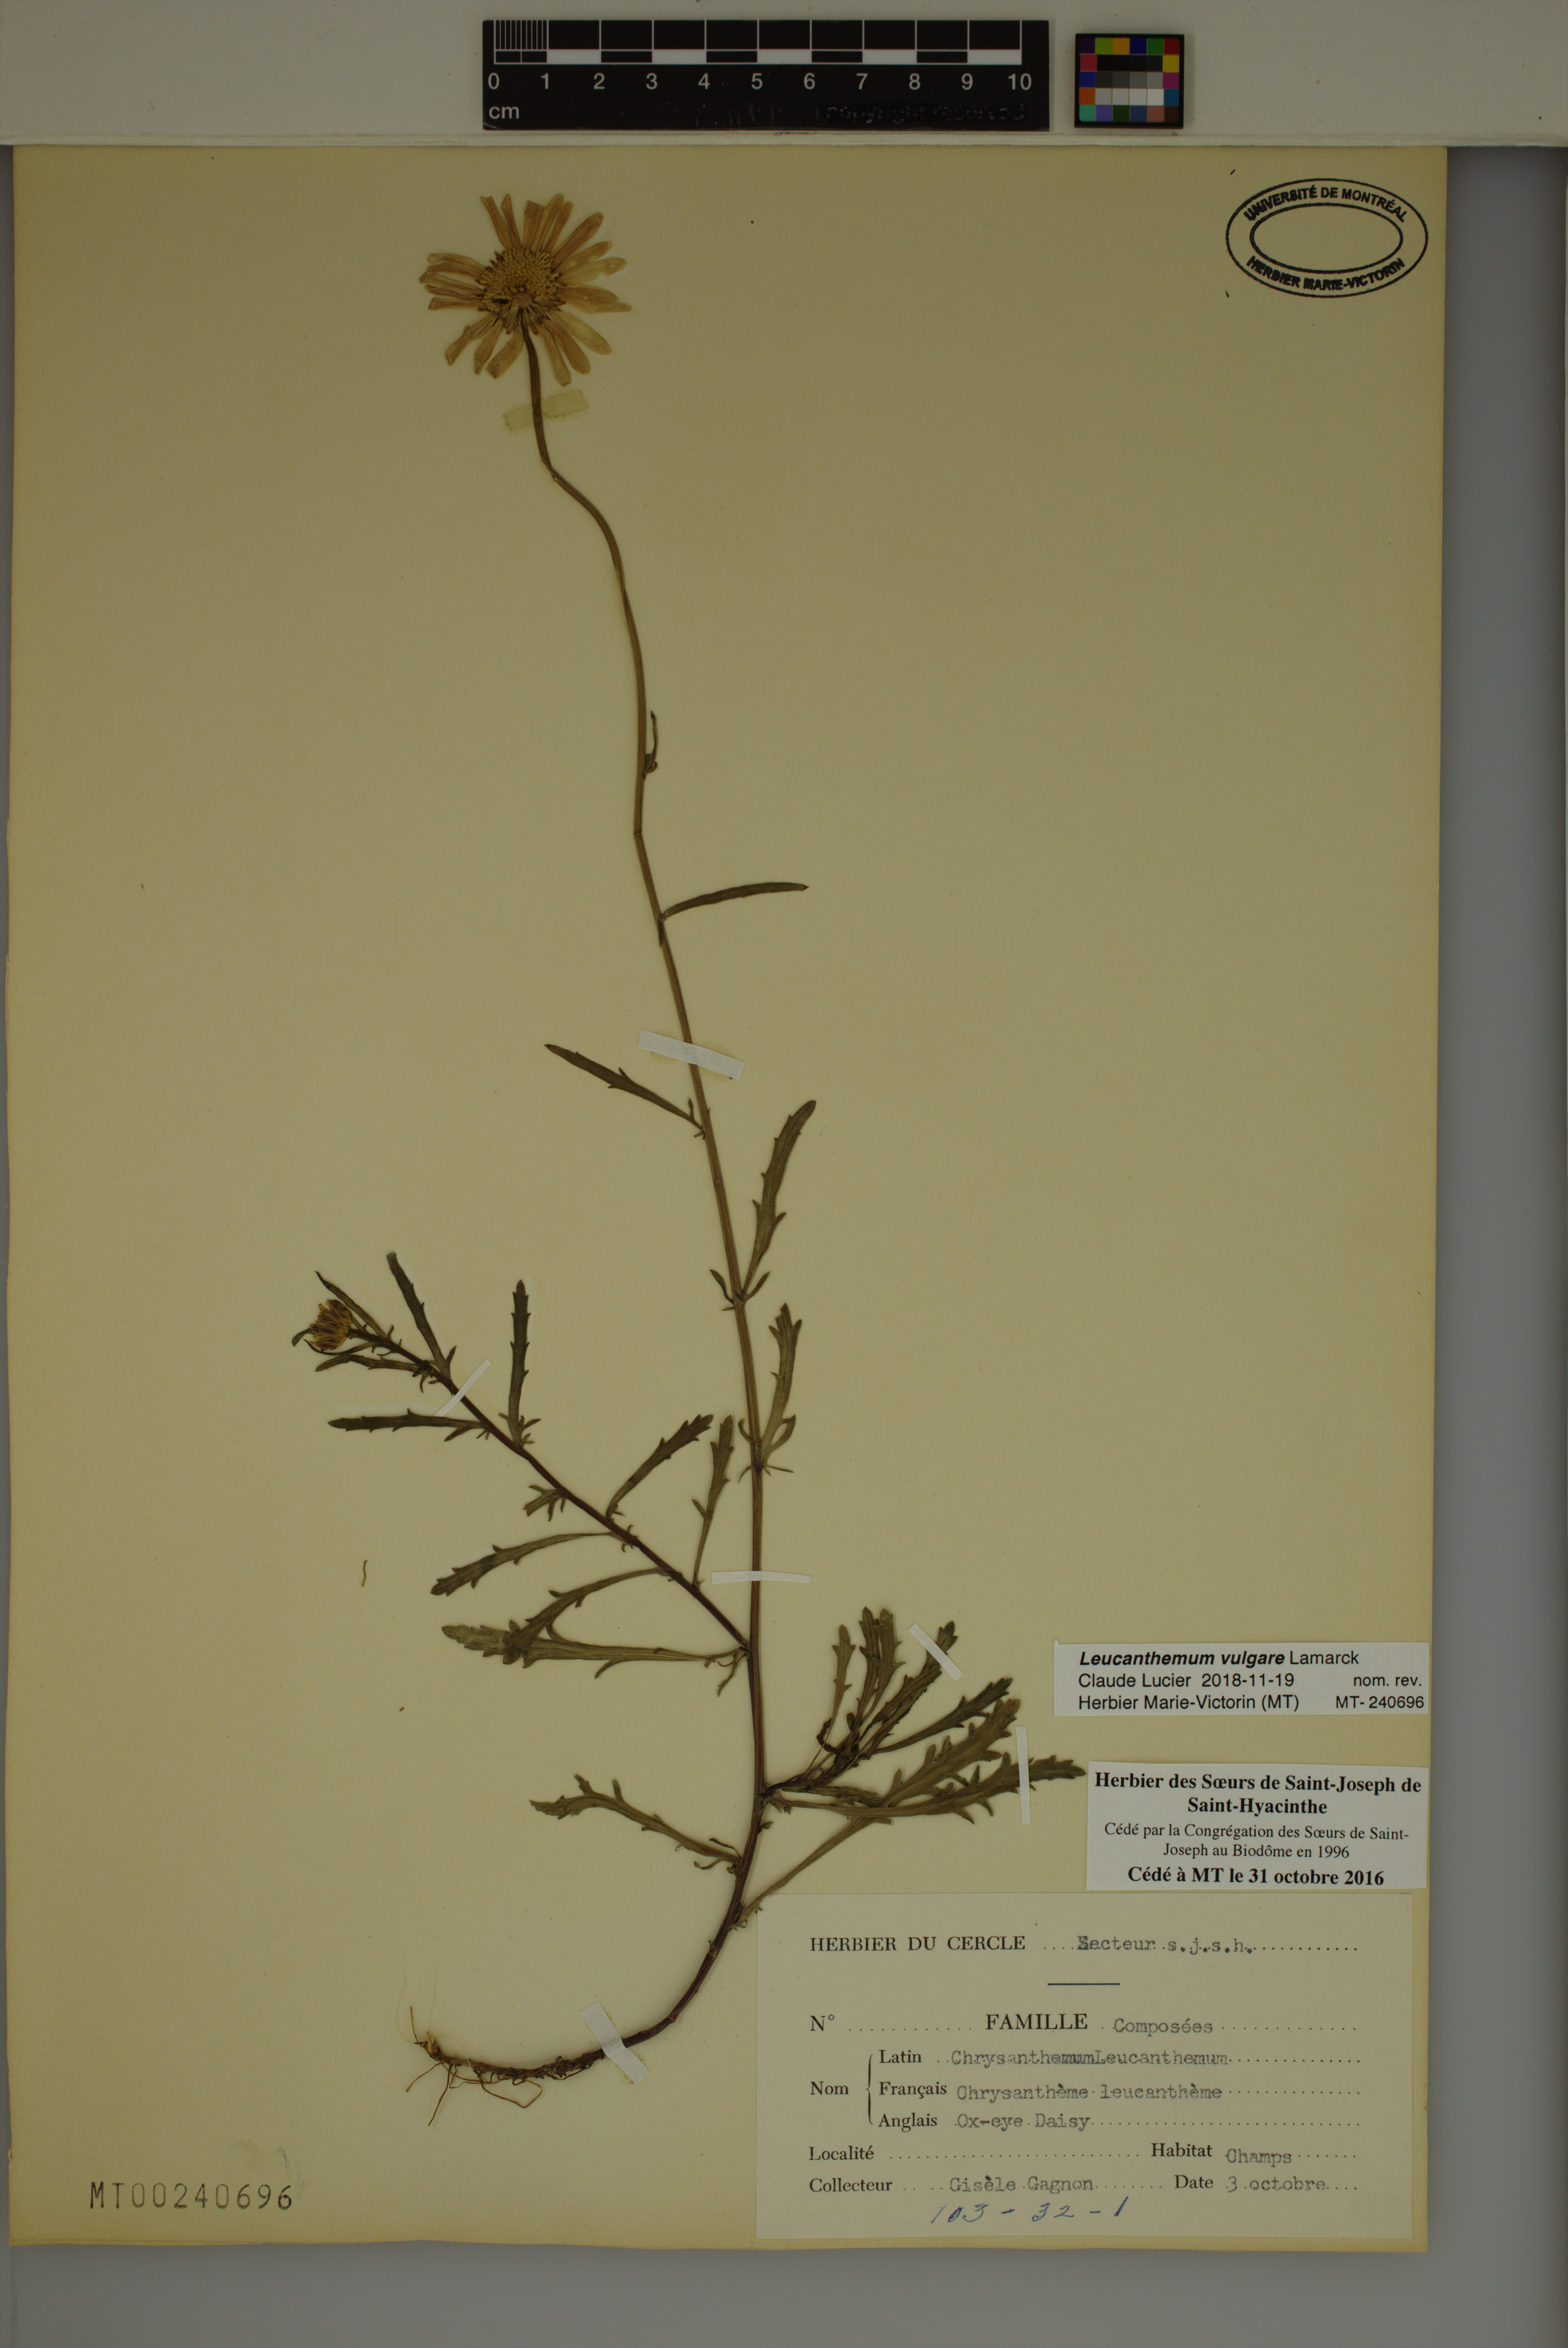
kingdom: Plantae
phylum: Tracheophyta
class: Magnoliopsida
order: Asterales
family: Asteraceae
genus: Leucanthemum
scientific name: Leucanthemum vulgare
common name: Oxeye daisy
